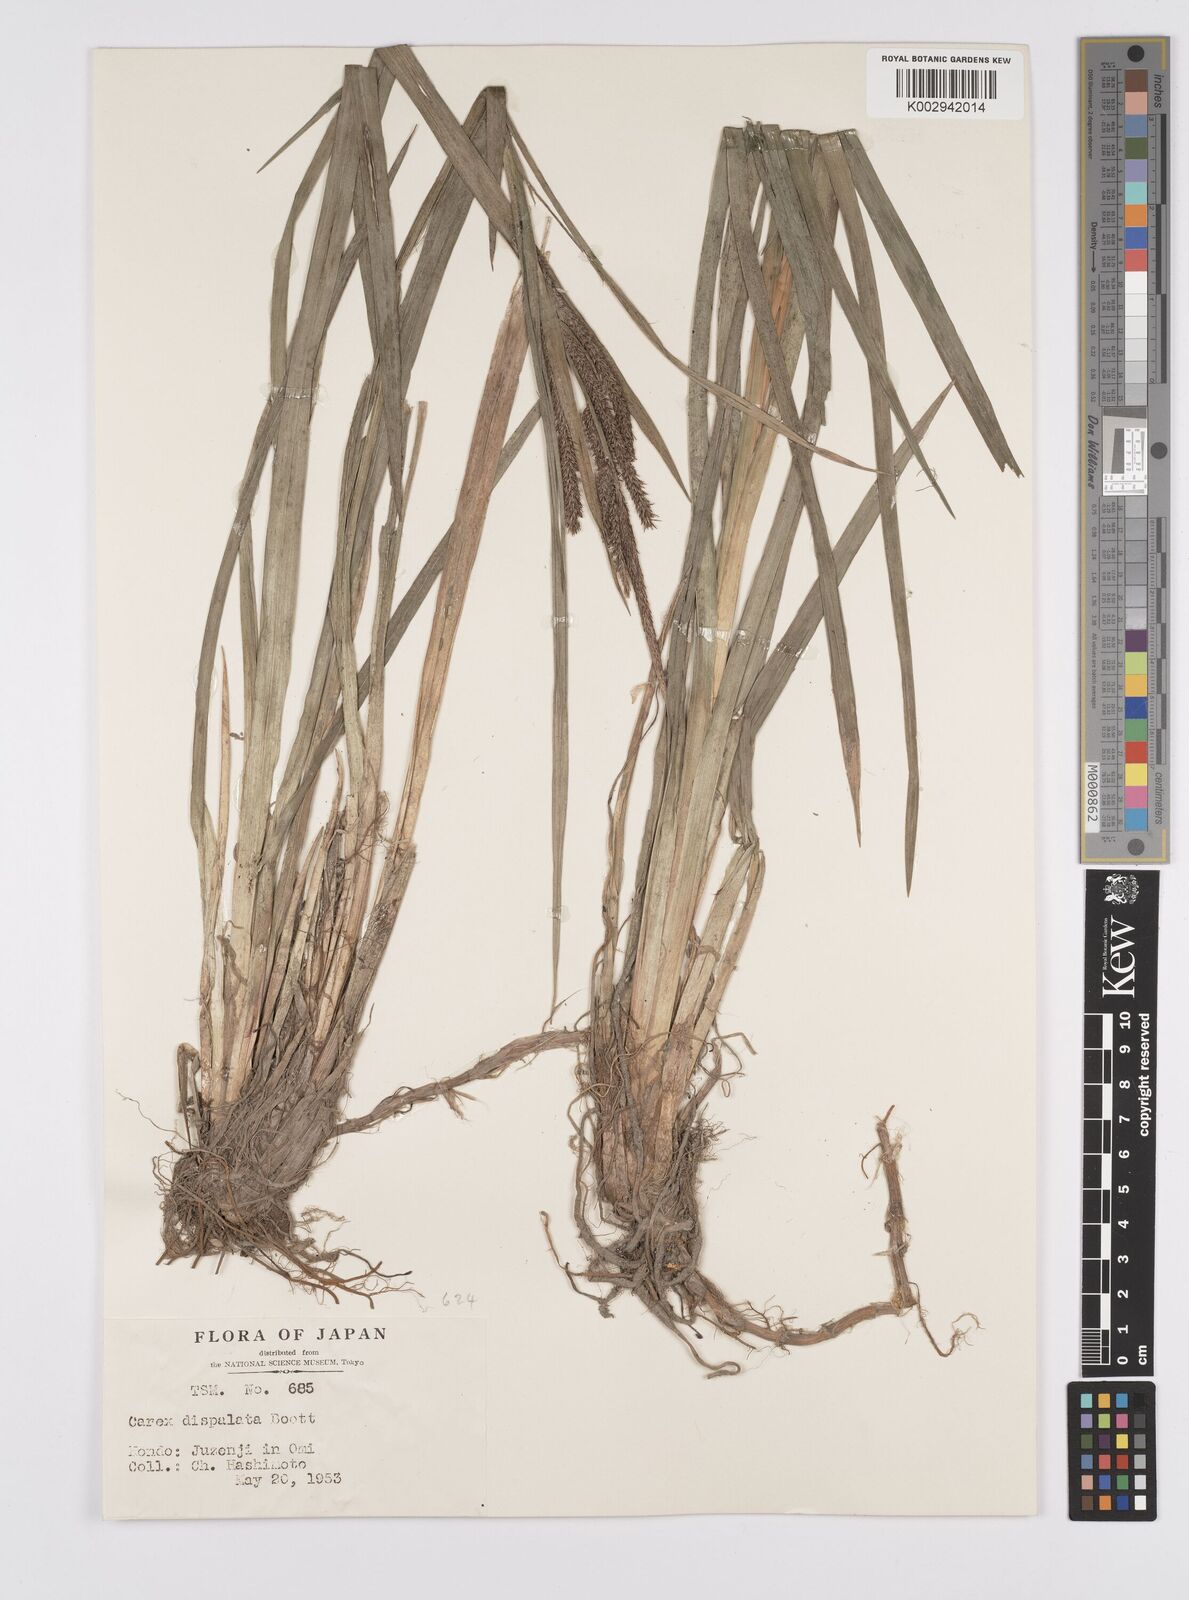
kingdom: Plantae
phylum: Tracheophyta
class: Liliopsida
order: Poales
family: Cyperaceae
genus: Carex
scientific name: Carex dispalata
